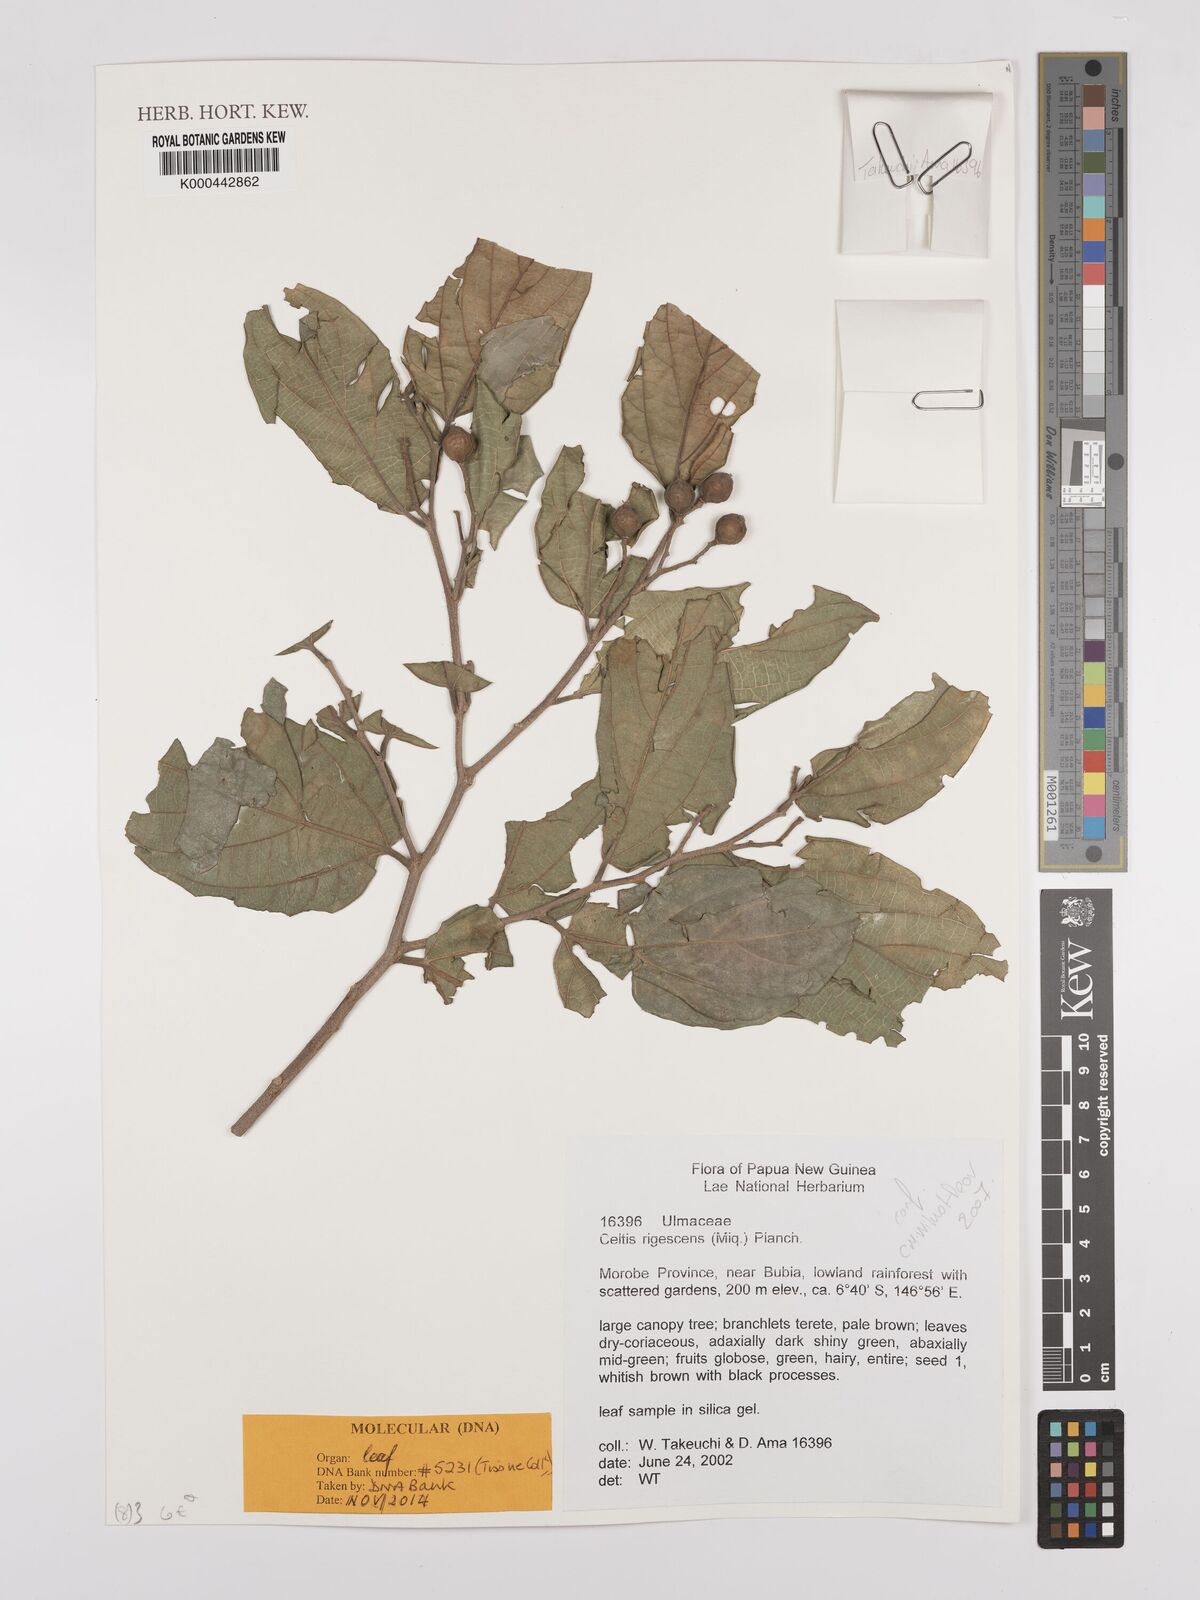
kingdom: Plantae
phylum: Tracheophyta
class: Magnoliopsida
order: Rosales
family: Cannabaceae
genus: Celtis
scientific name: Celtis rigescens
